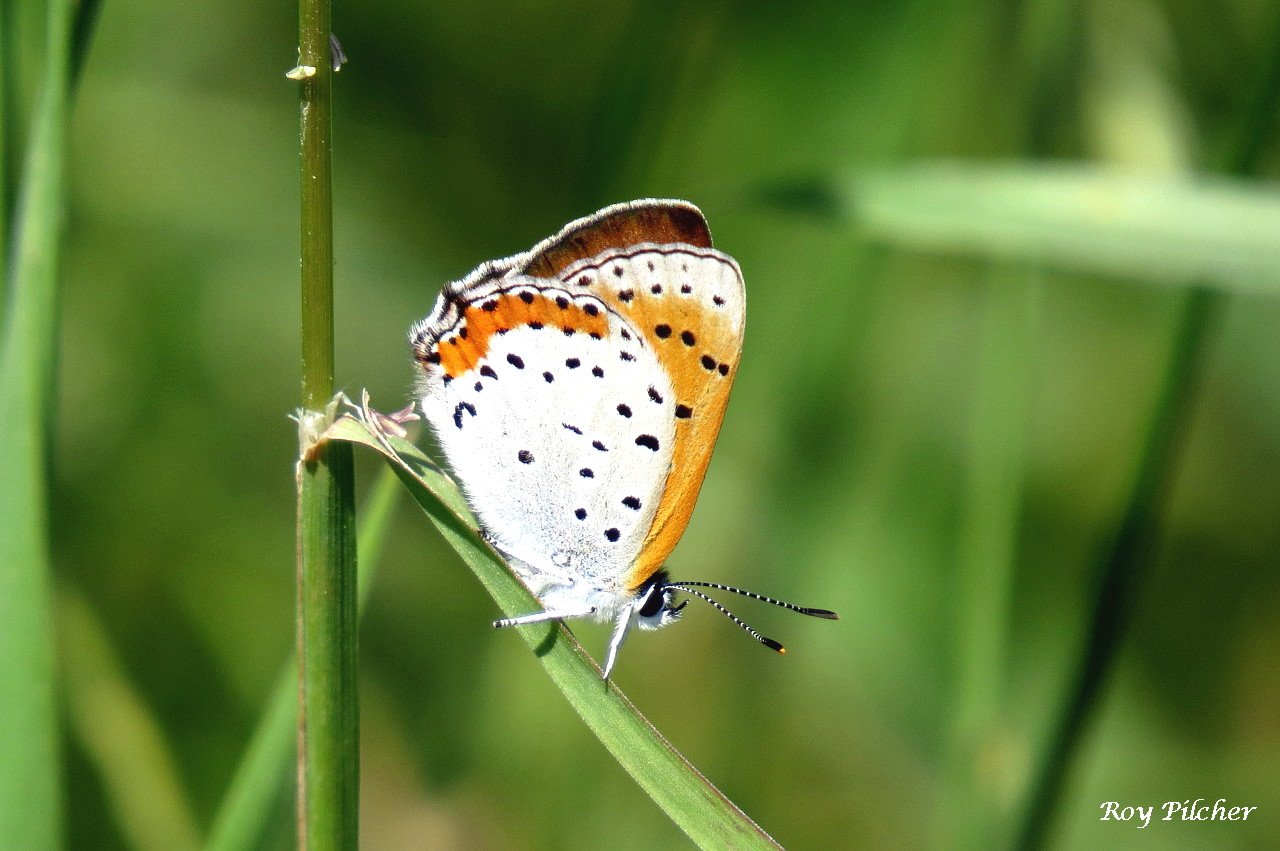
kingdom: Animalia
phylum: Arthropoda
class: Insecta
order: Lepidoptera
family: Sesiidae
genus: Sesia
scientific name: Sesia Lycaena hyllus
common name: Bronze Copper
